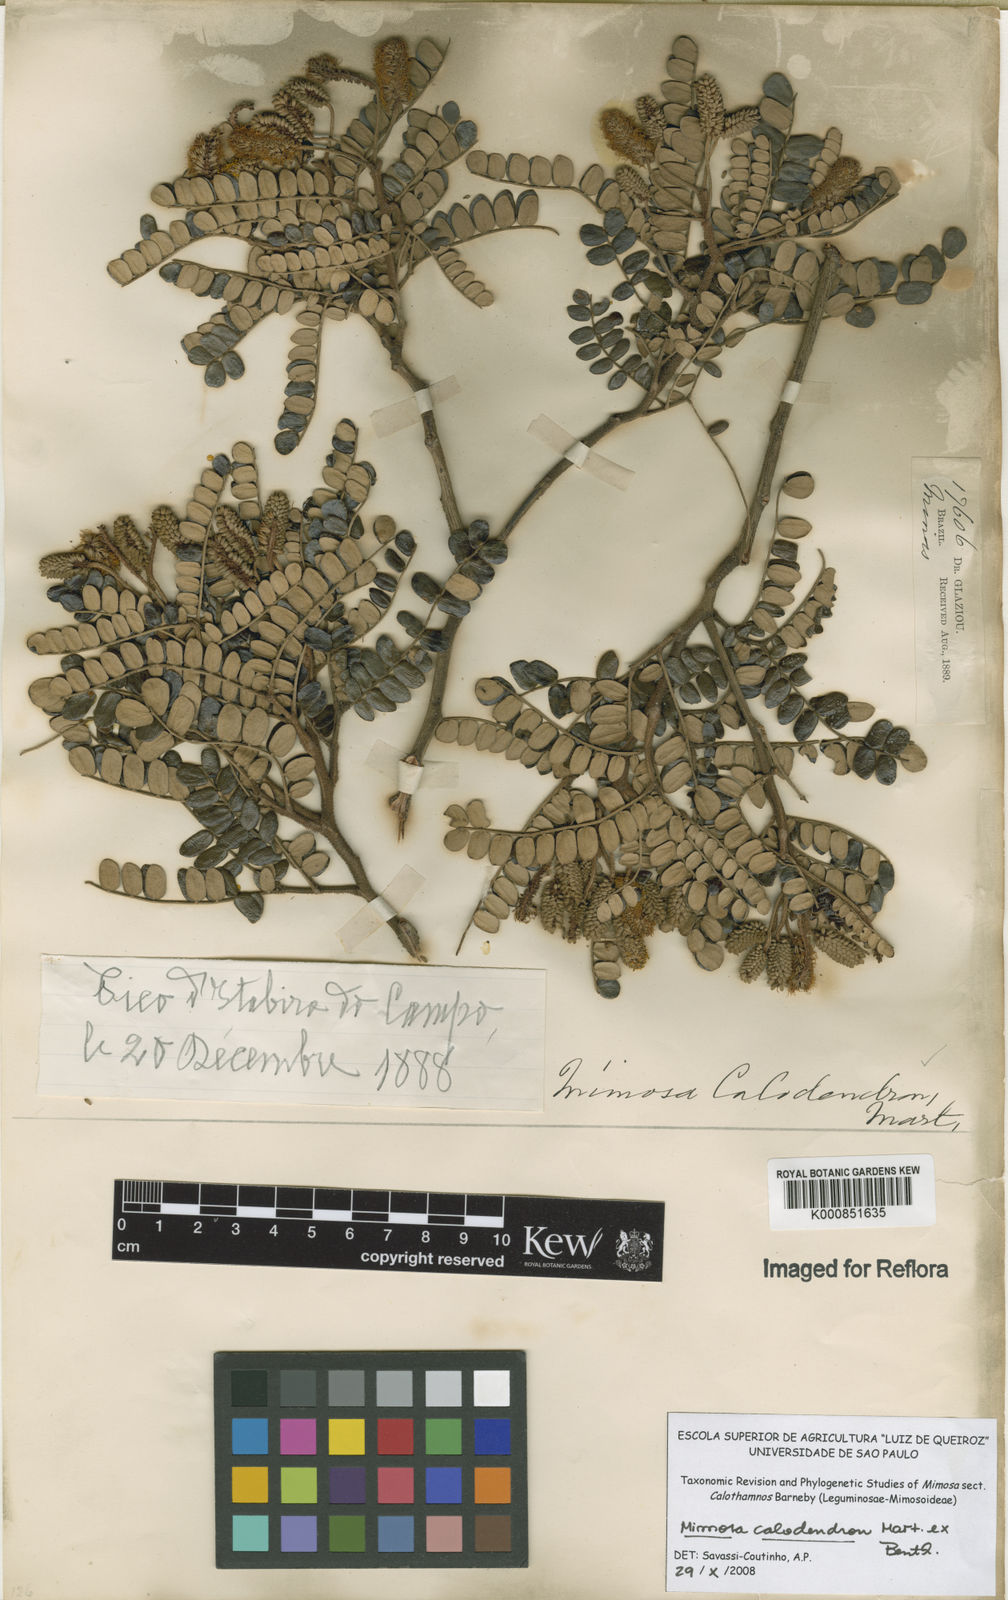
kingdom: Plantae
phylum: Tracheophyta
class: Magnoliopsida
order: Fabales
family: Fabaceae
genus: Mimosa
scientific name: Mimosa
